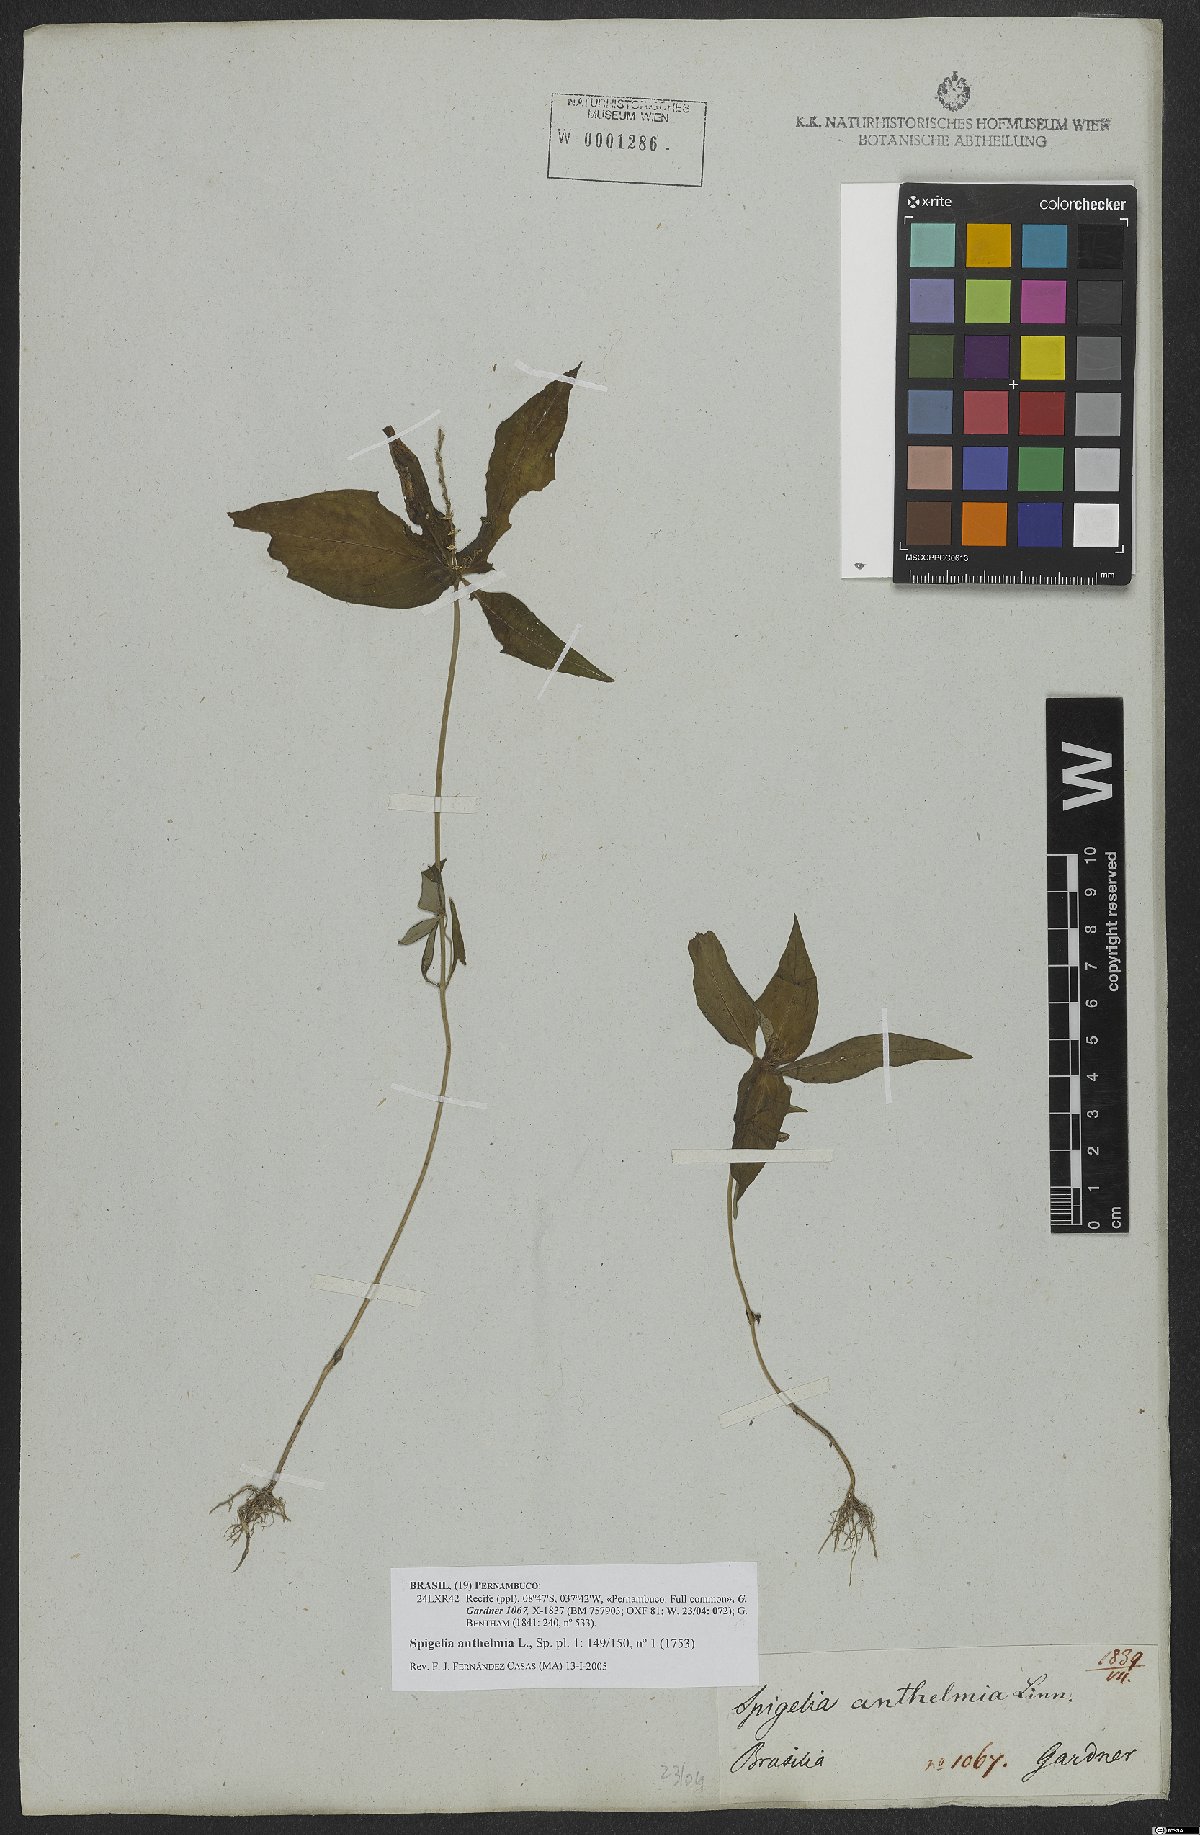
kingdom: Plantae
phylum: Tracheophyta
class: Magnoliopsida
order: Gentianales
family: Loganiaceae
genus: Spigelia
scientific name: Spigelia anthelmia
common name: West indian-pink
